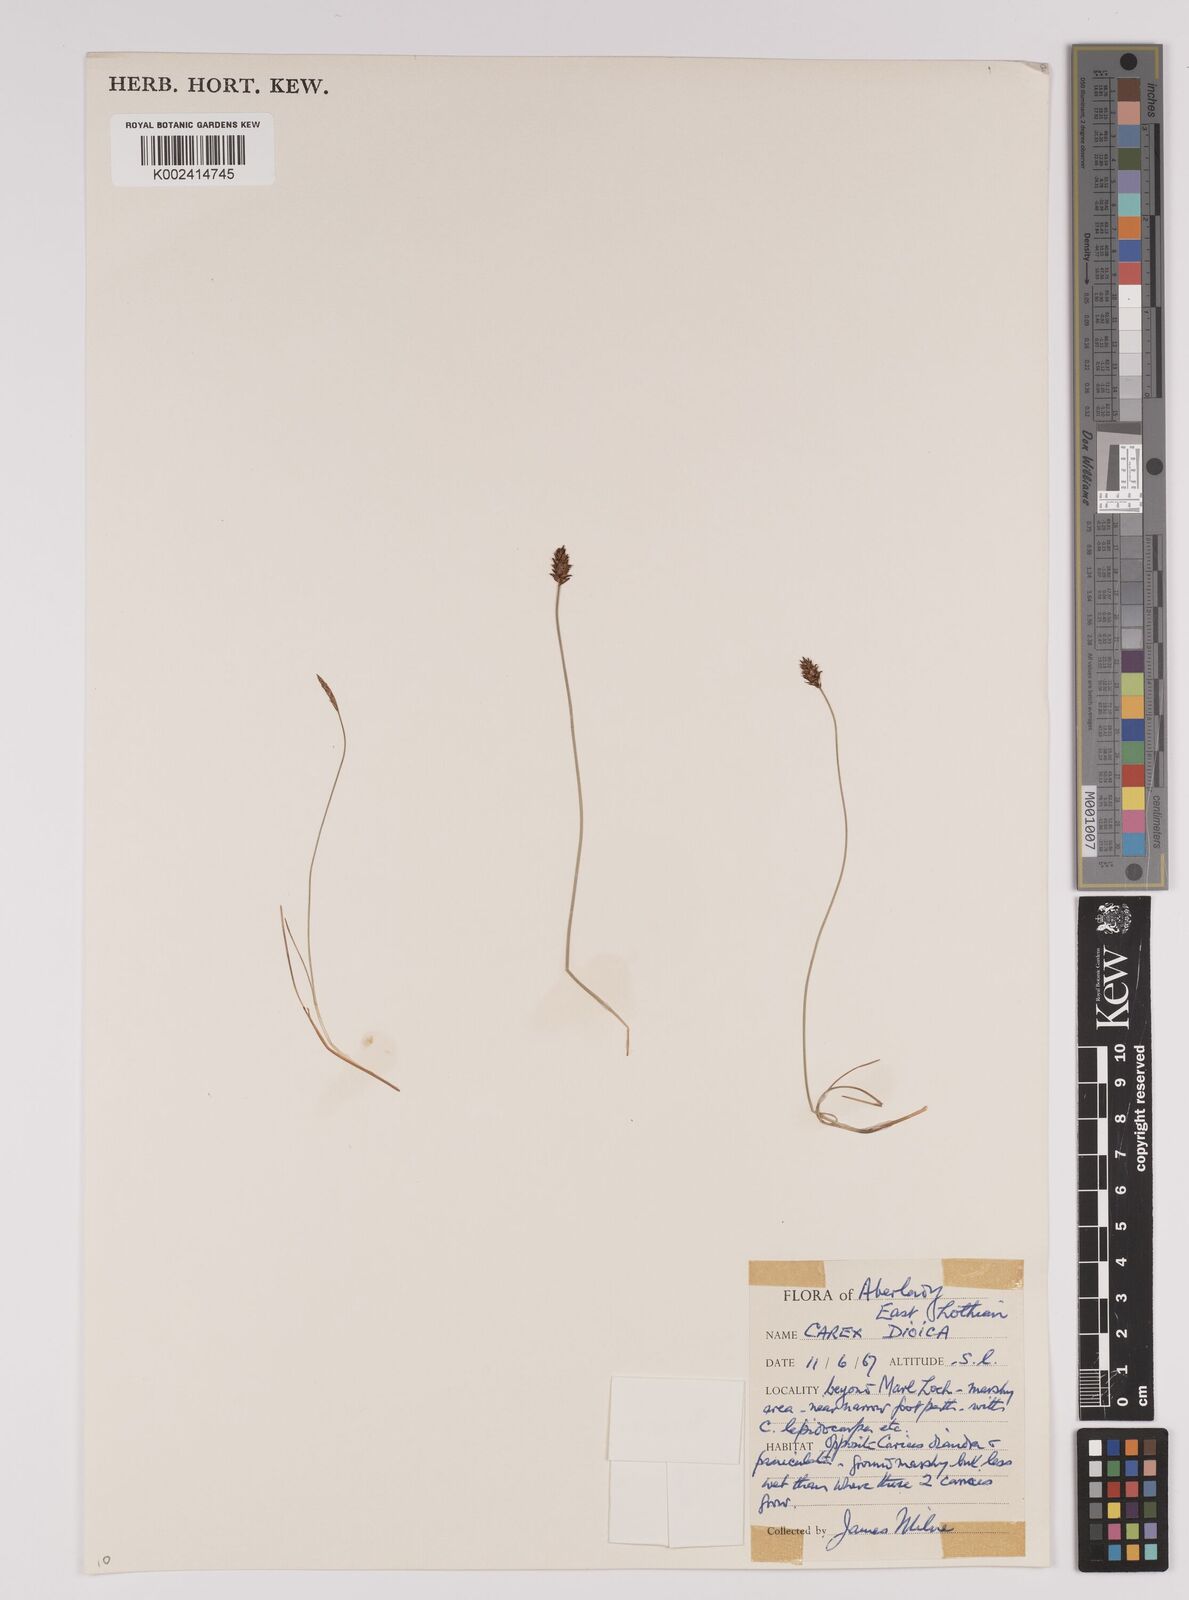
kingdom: Plantae
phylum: Tracheophyta
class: Liliopsida
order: Poales
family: Cyperaceae
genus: Carex
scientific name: Carex dioica
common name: Dioecious sedge
